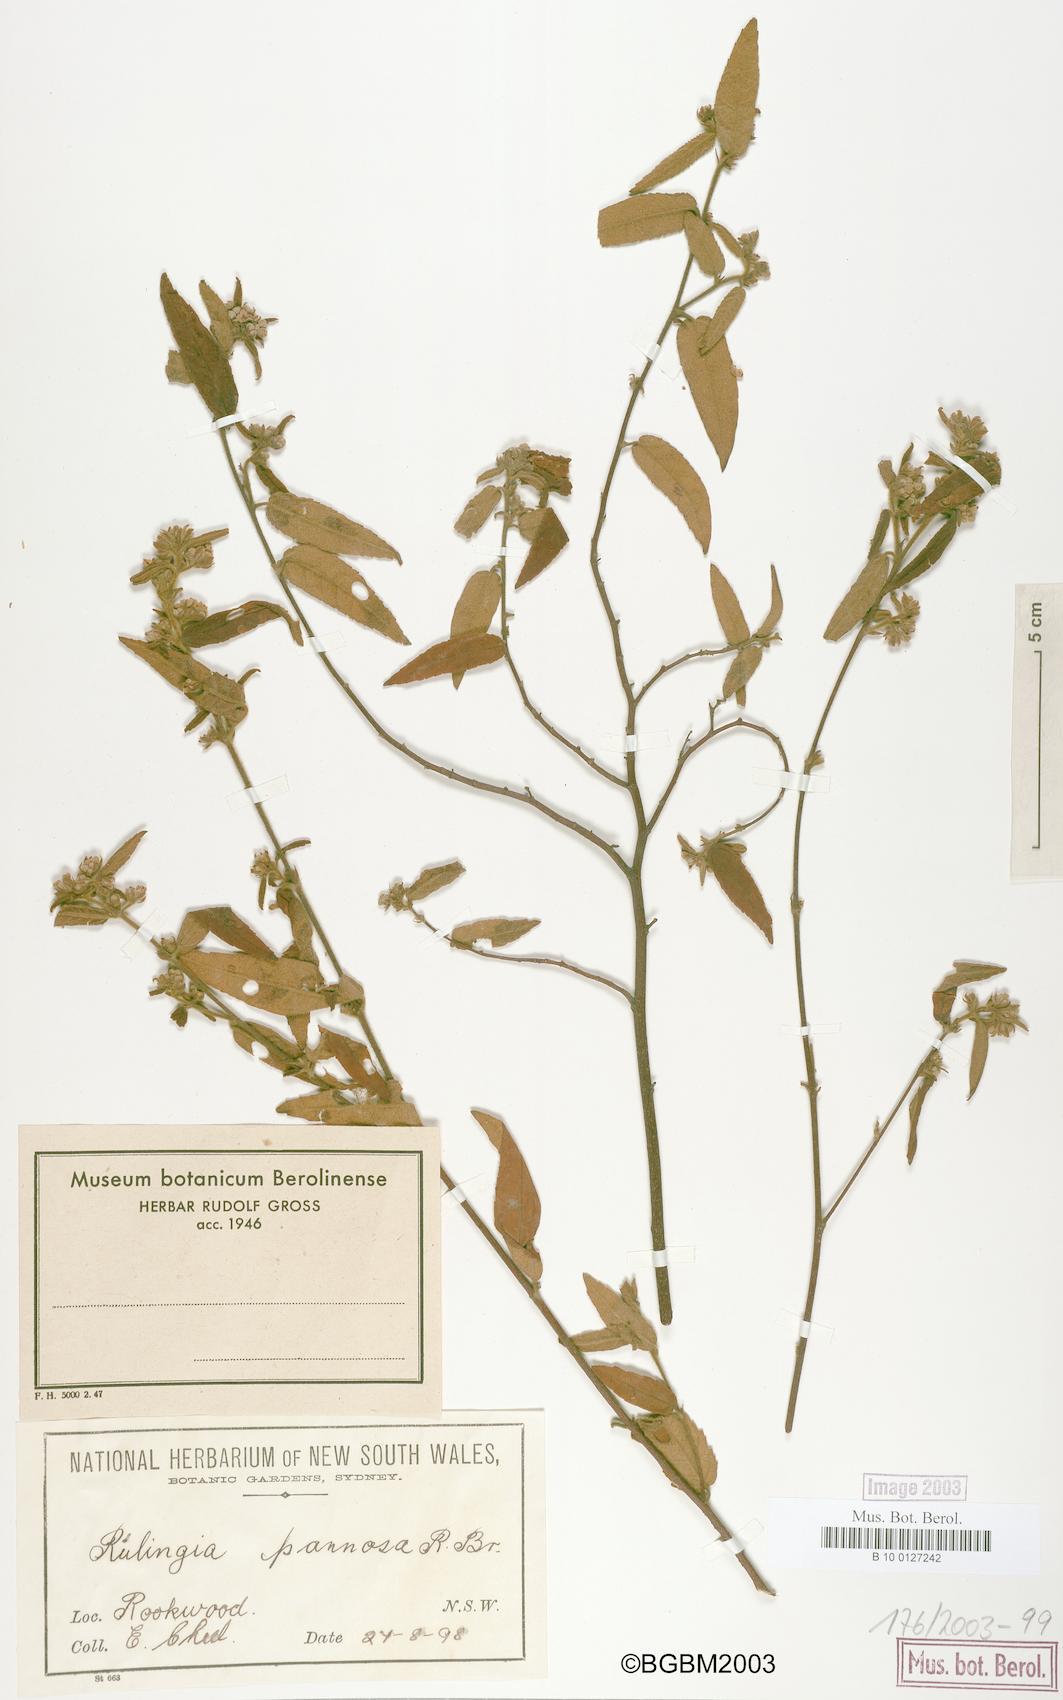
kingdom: Plantae
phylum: Tracheophyta
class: Magnoliopsida
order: Malvales
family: Malvaceae
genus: Commersonia
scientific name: Commersonia dasyphylla
